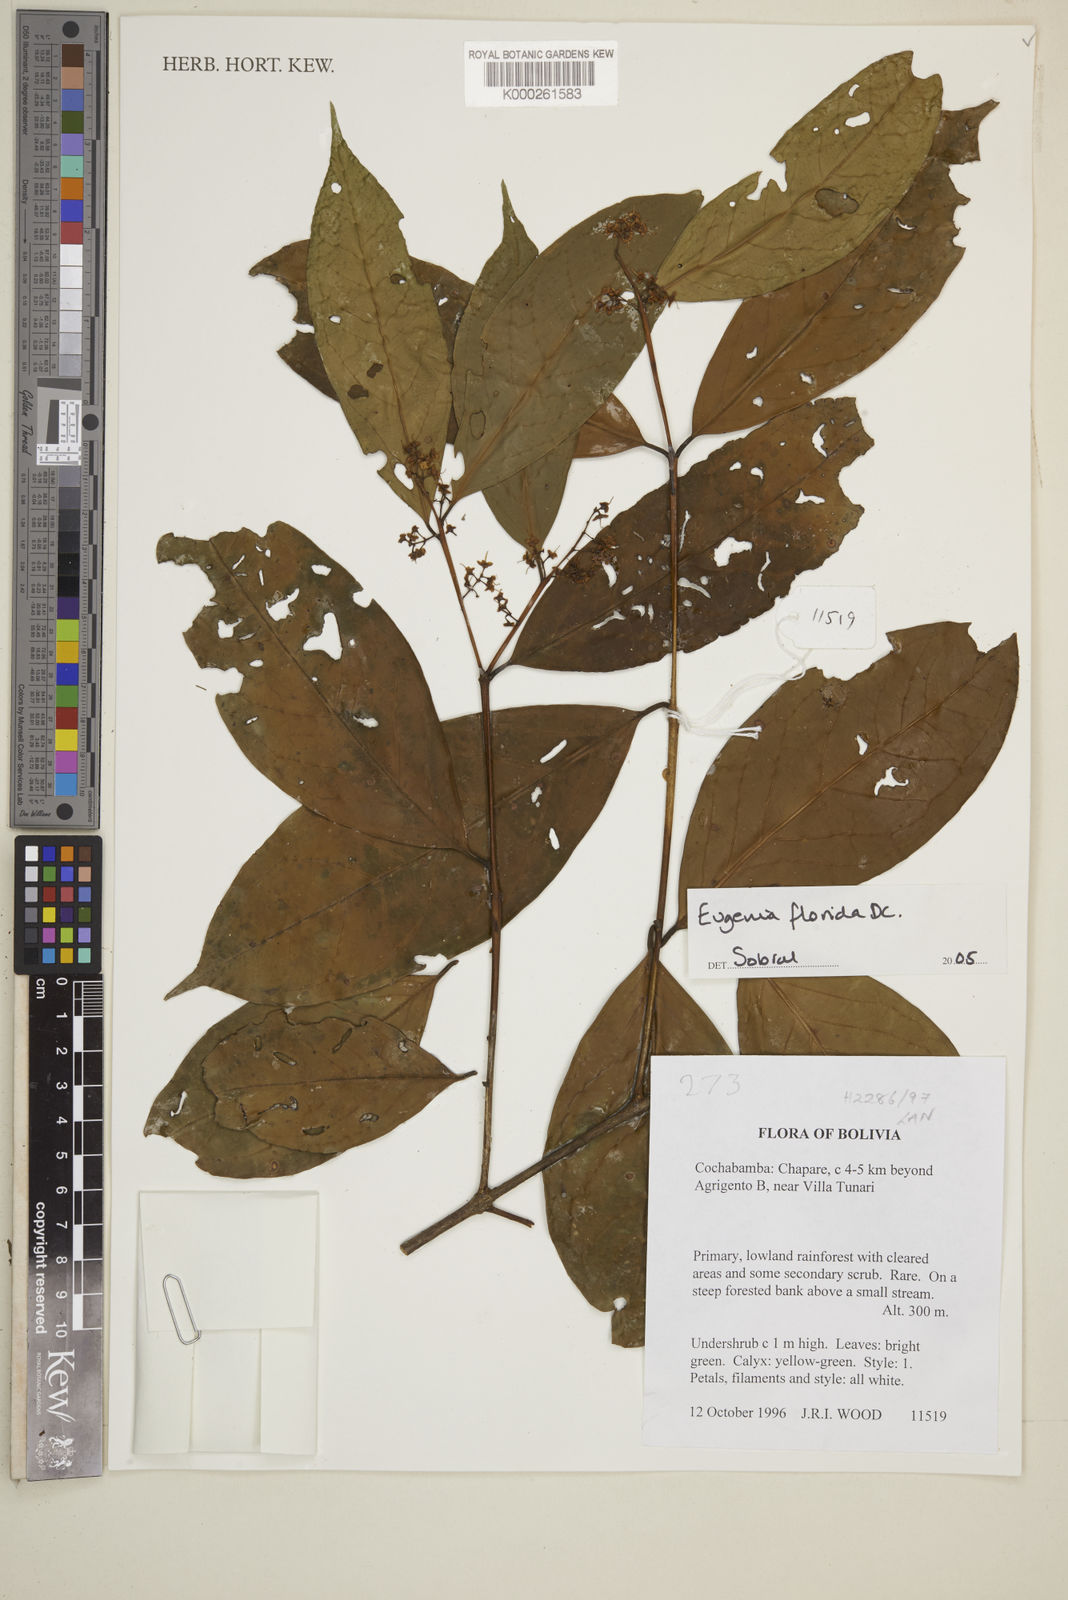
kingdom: Plantae
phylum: Tracheophyta
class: Magnoliopsida
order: Myrtales
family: Myrtaceae
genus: Eugenia
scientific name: Eugenia florida
